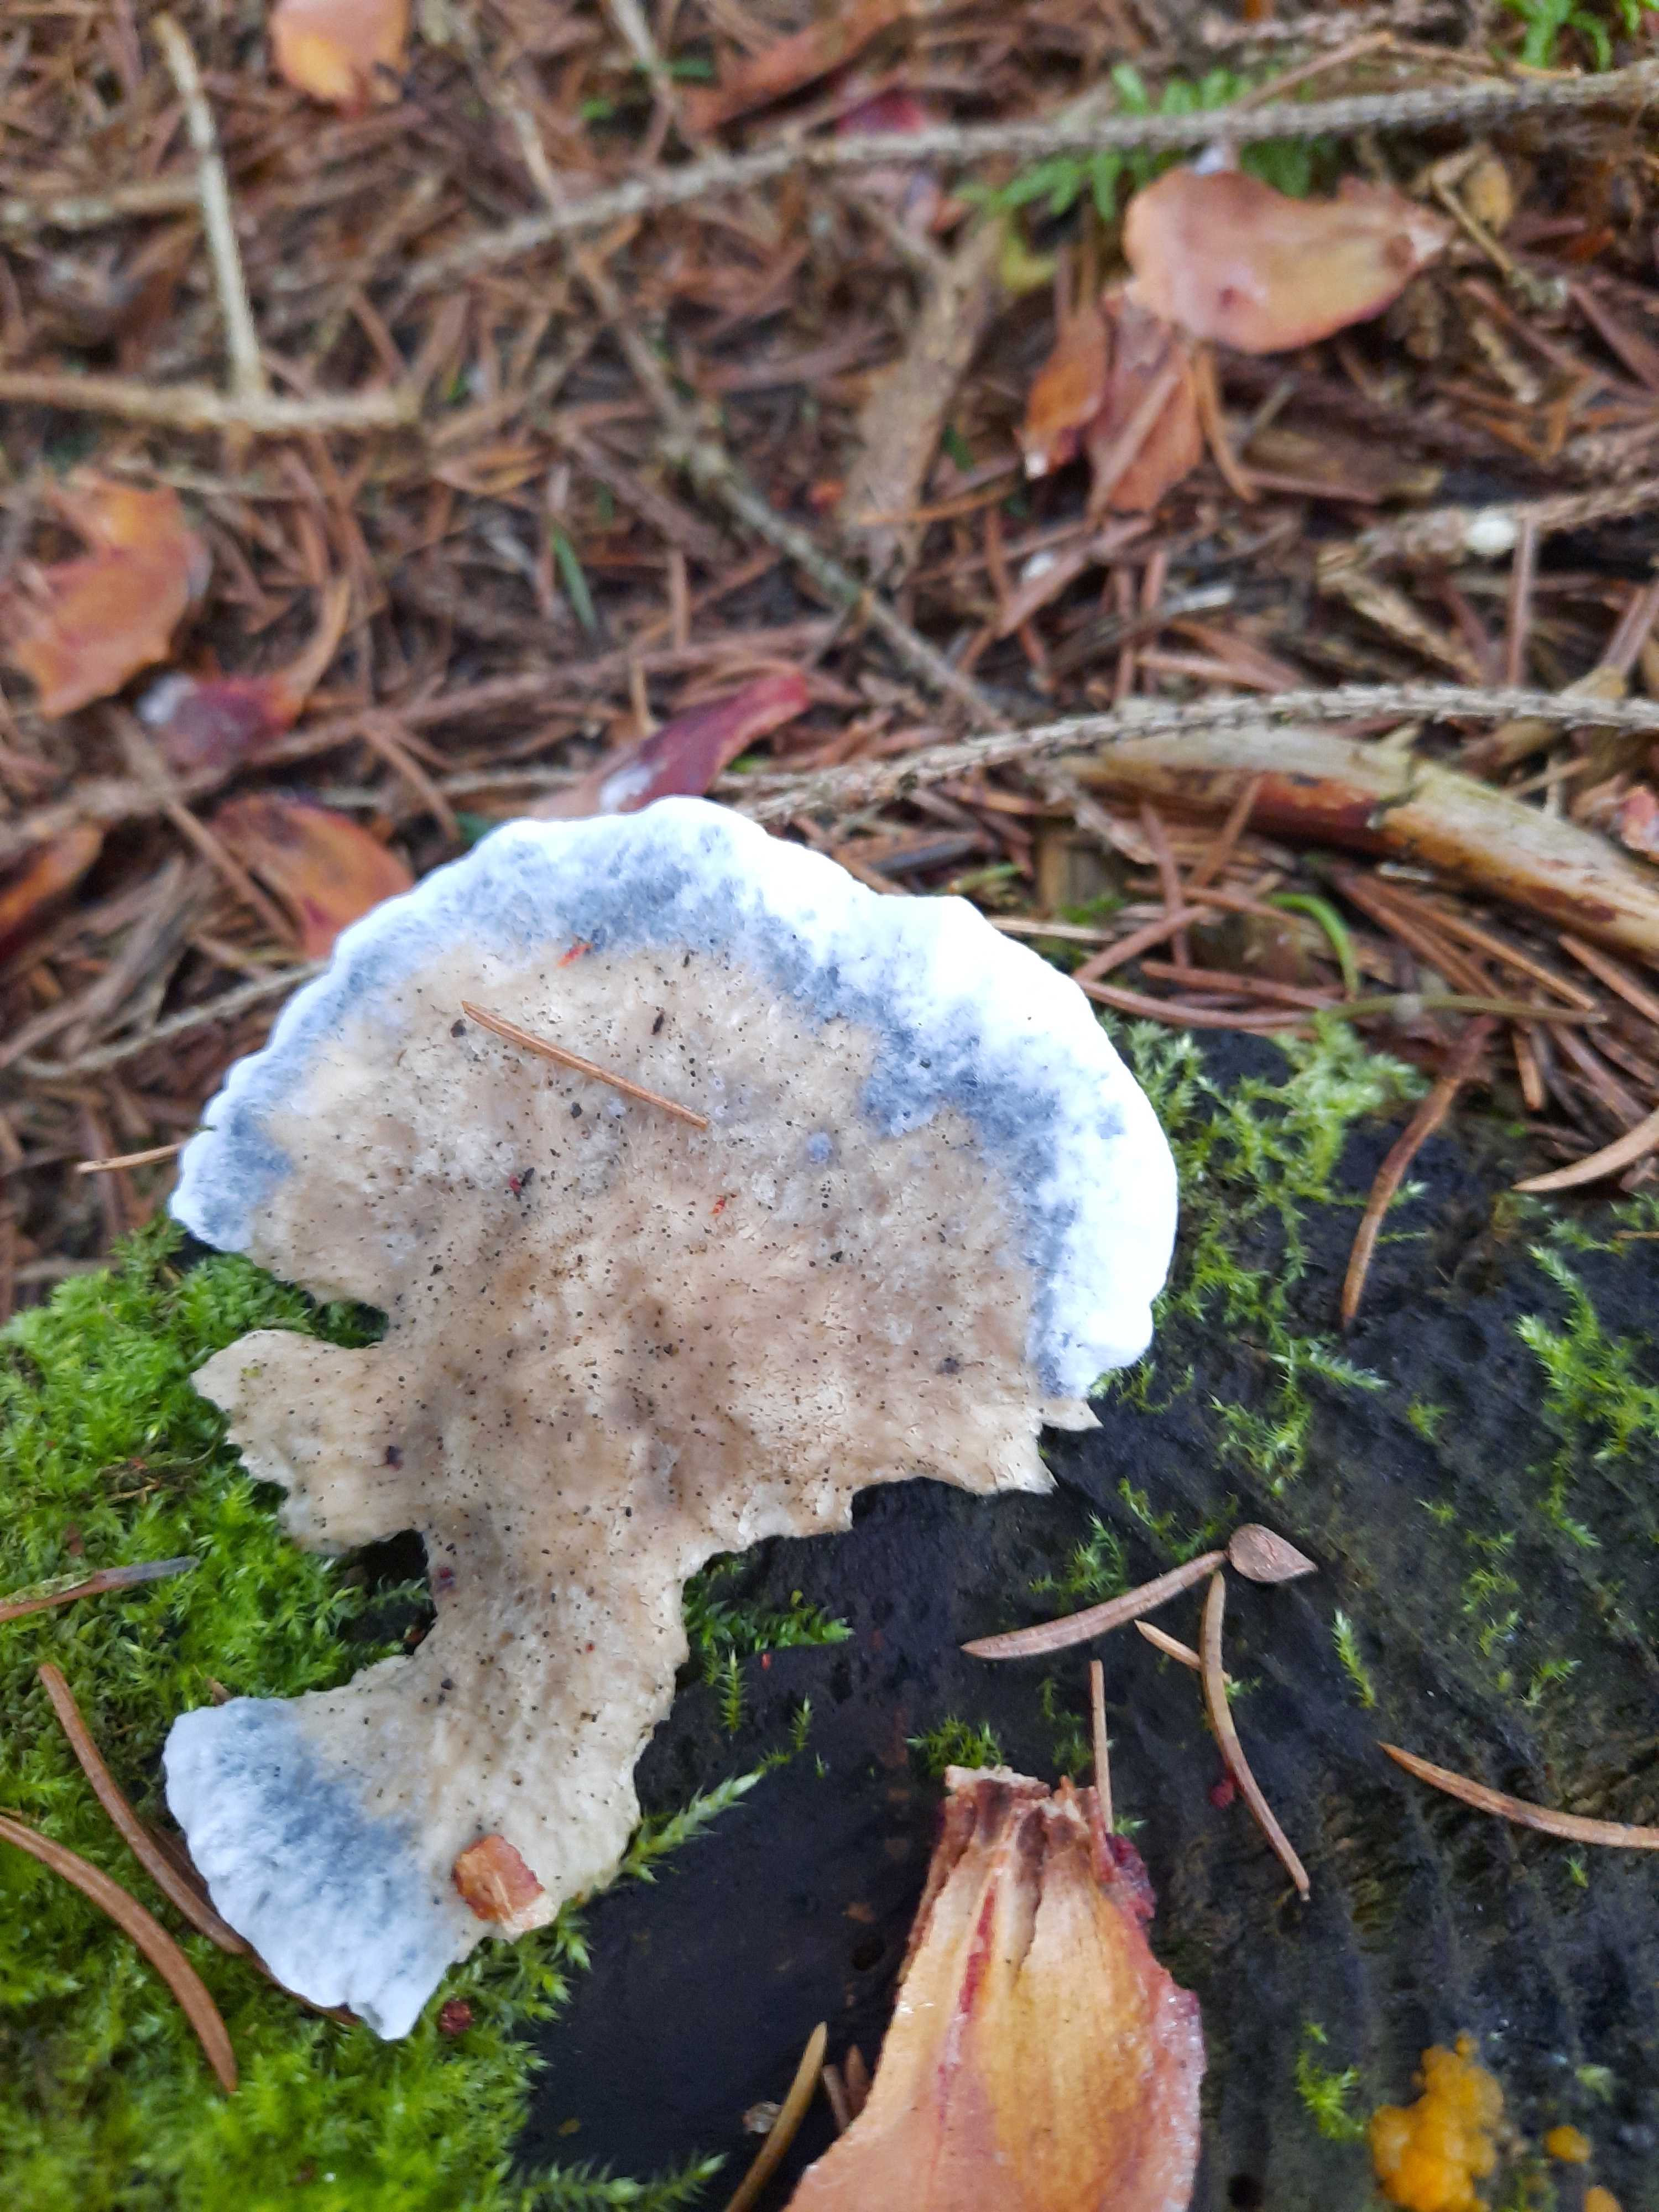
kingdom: Fungi
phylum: Basidiomycota
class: Agaricomycetes
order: Polyporales
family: Polyporaceae
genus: Cyanosporus
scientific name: Cyanosporus caesius
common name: blålig kødporesvamp
